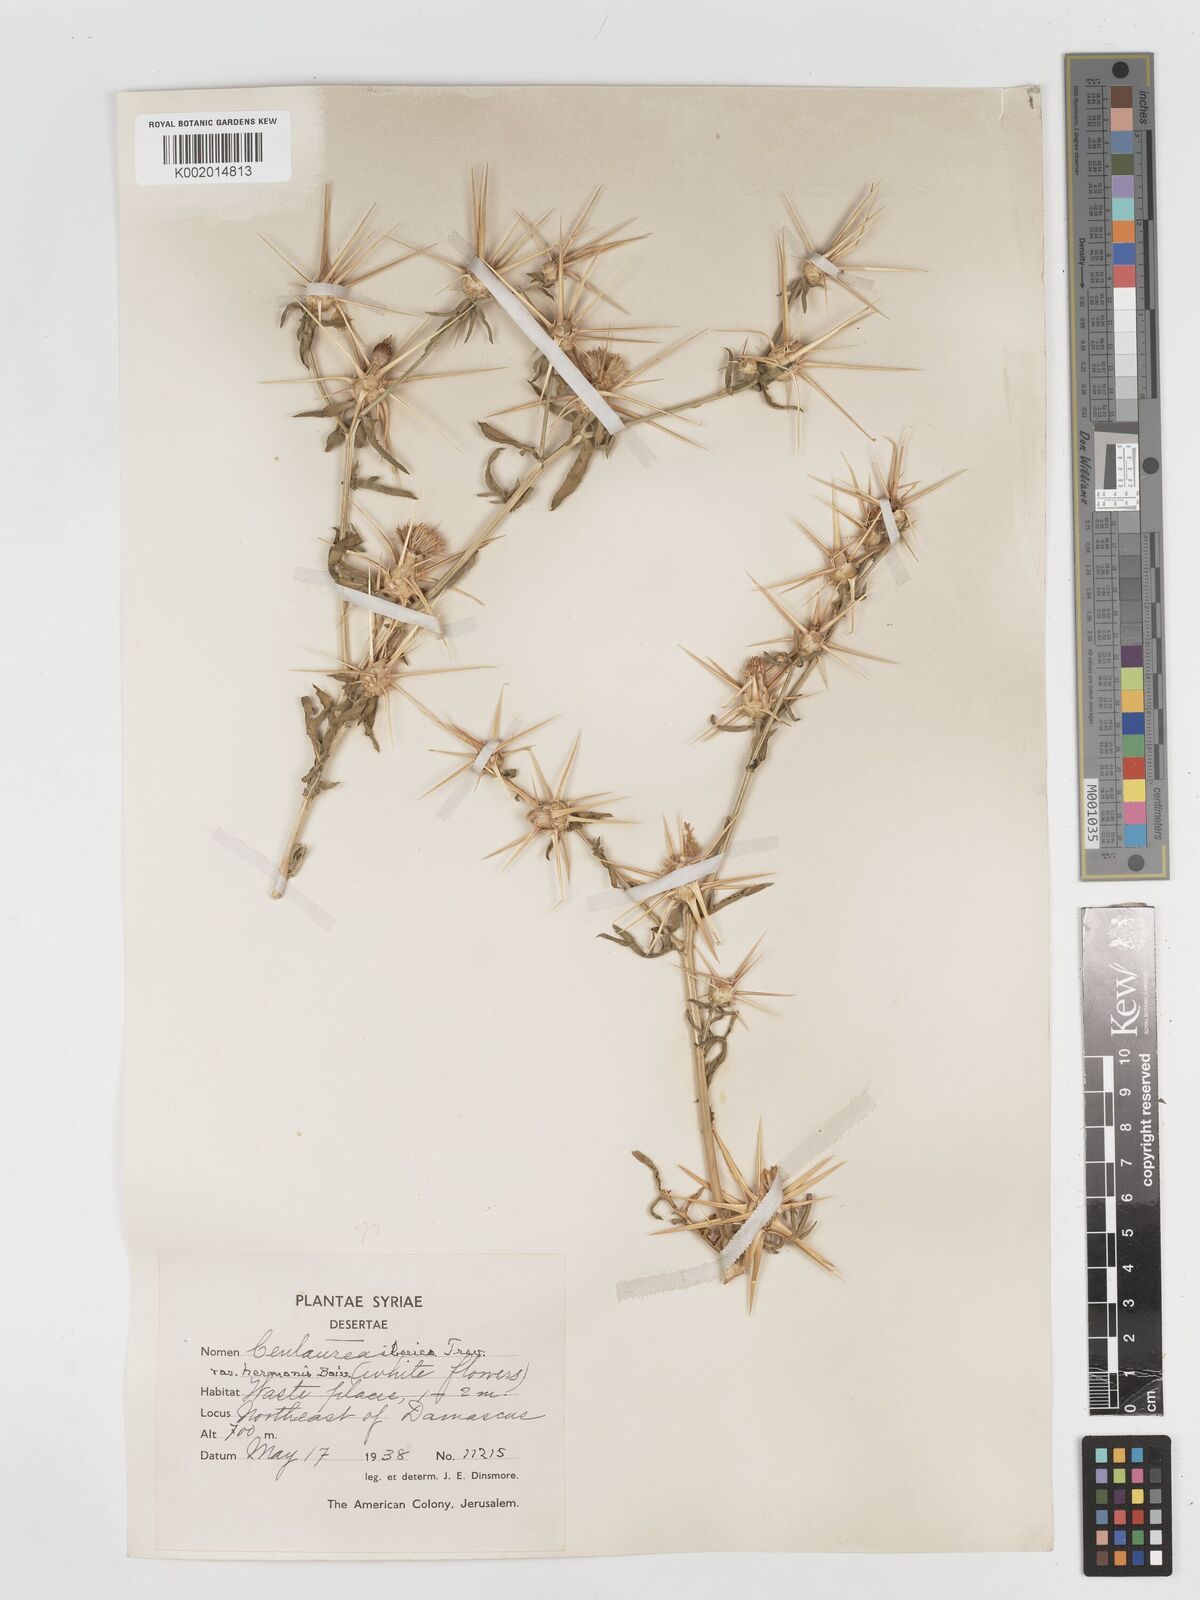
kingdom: Plantae
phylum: Tracheophyta
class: Magnoliopsida
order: Asterales
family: Asteraceae
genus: Centaurea
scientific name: Centaurea iberica
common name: Iberian knapweed
